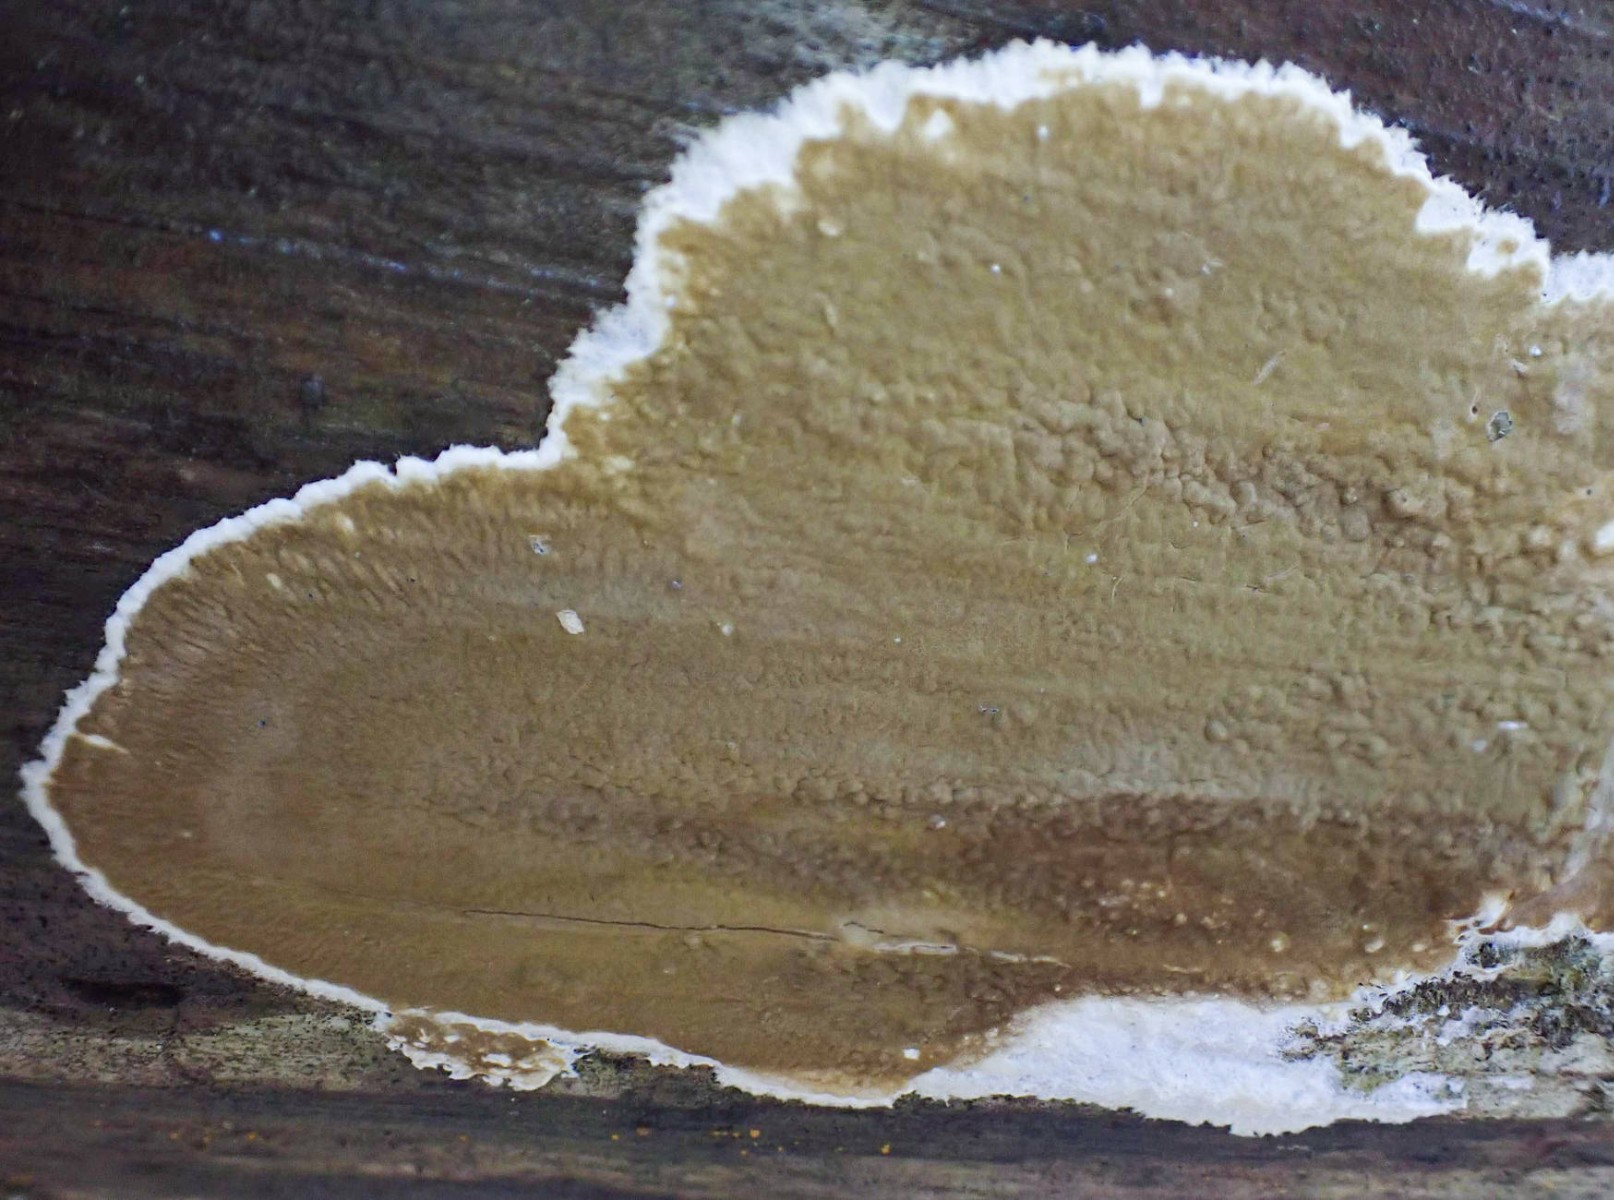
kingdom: Fungi
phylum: Basidiomycota
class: Agaricomycetes
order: Boletales
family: Coniophoraceae
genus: Coniophora
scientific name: Coniophora arida
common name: tynd tømmersvamp
